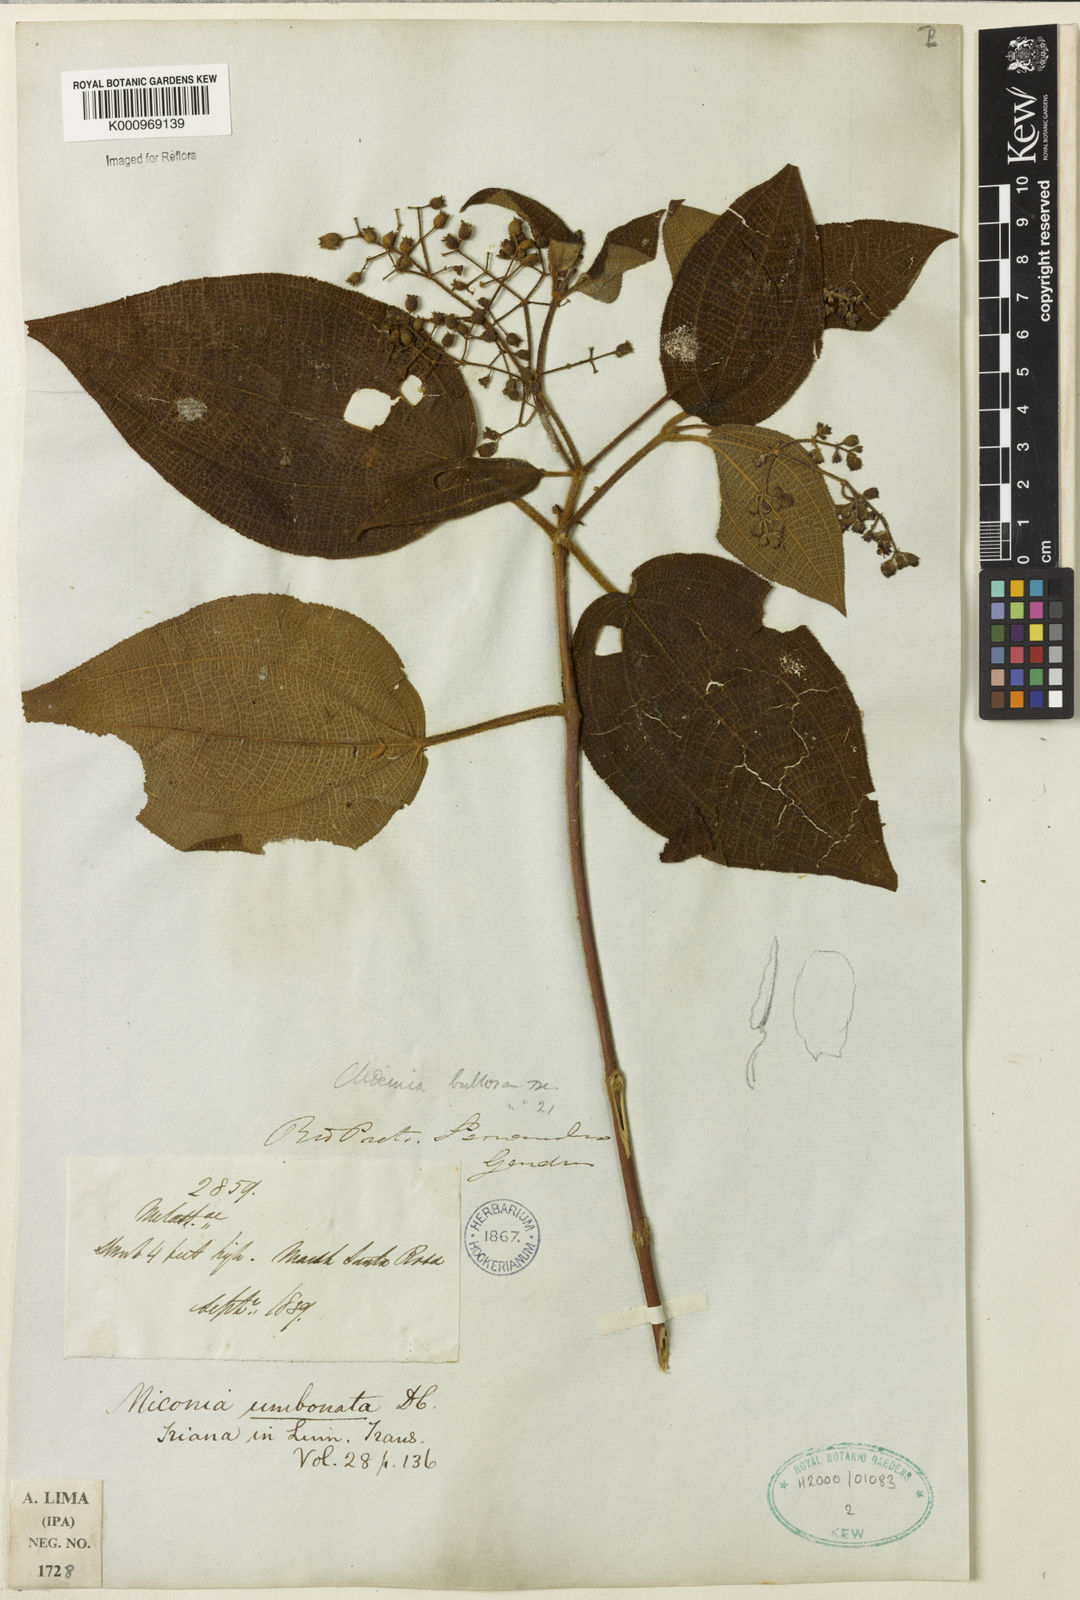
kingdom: Plantae
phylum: Tracheophyta
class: Magnoliopsida
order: Myrtales
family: Melastomataceae
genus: Miconia
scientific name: Miconia biserrata
